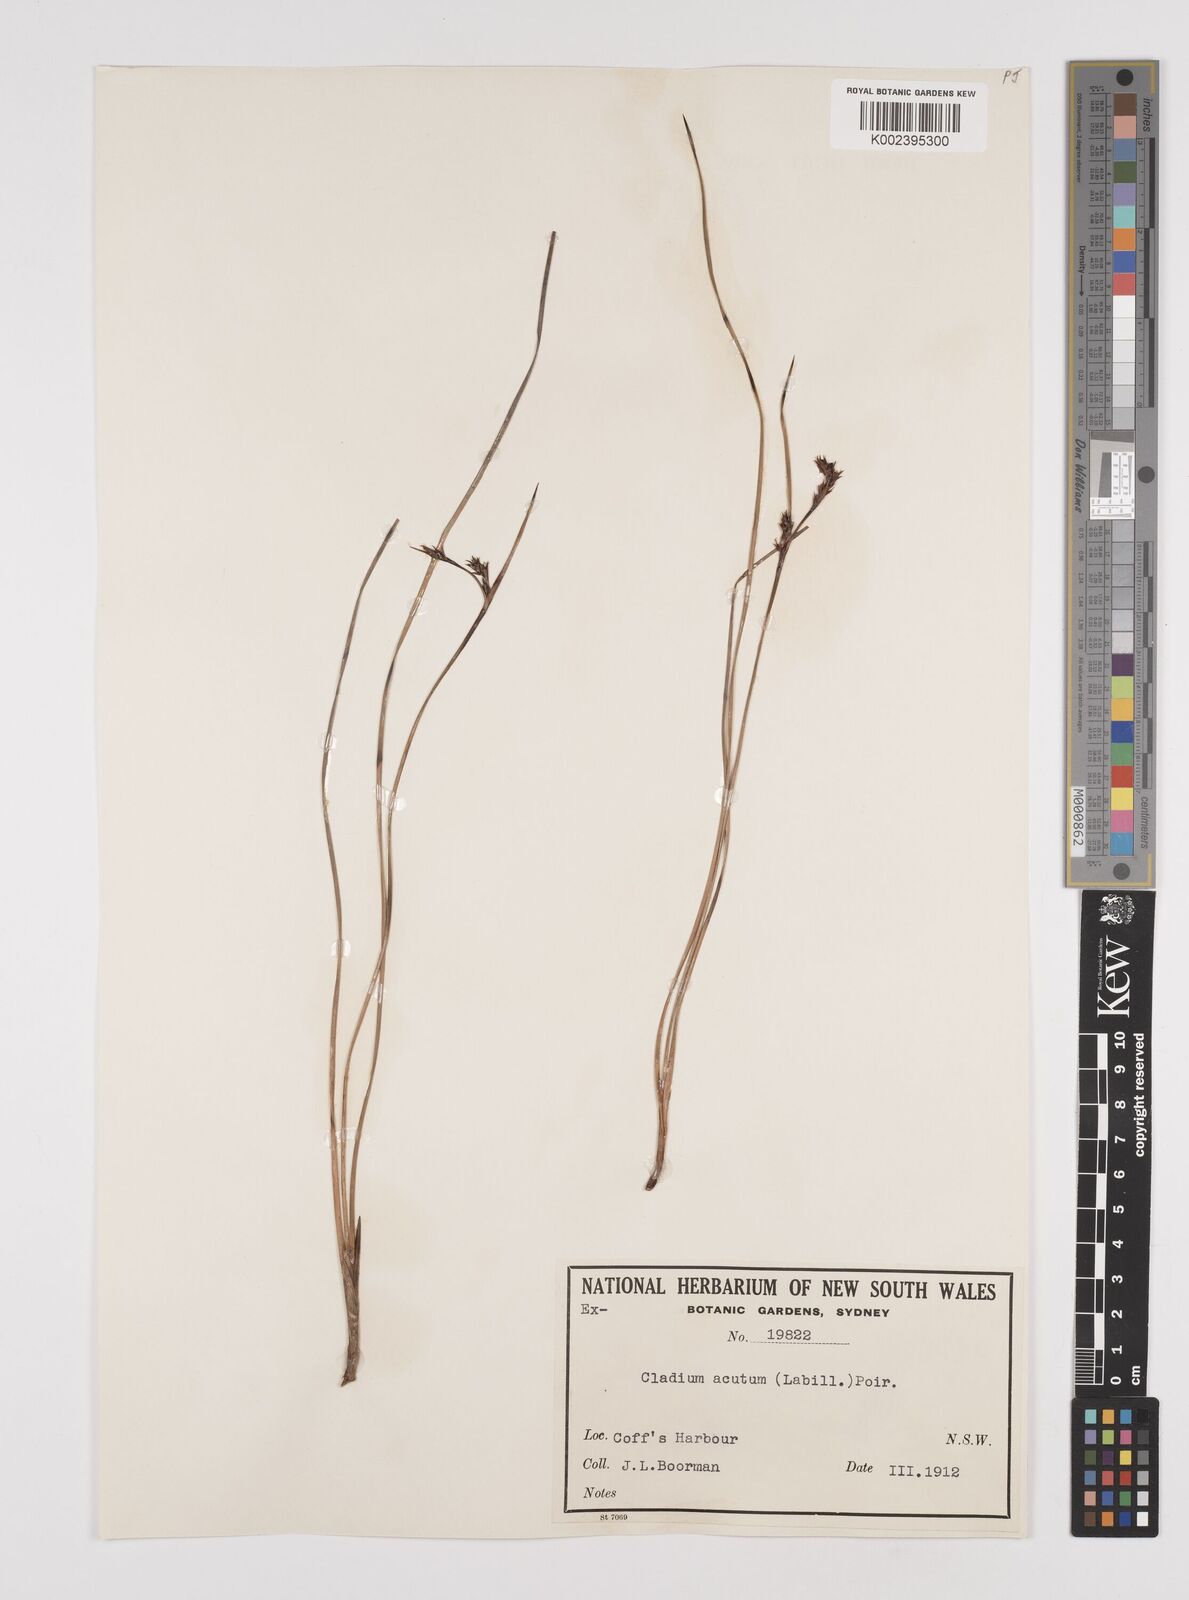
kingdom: Plantae
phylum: Tracheophyta
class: Liliopsida
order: Poales
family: Cyperaceae
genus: Machaerina
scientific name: Machaerina acuta
